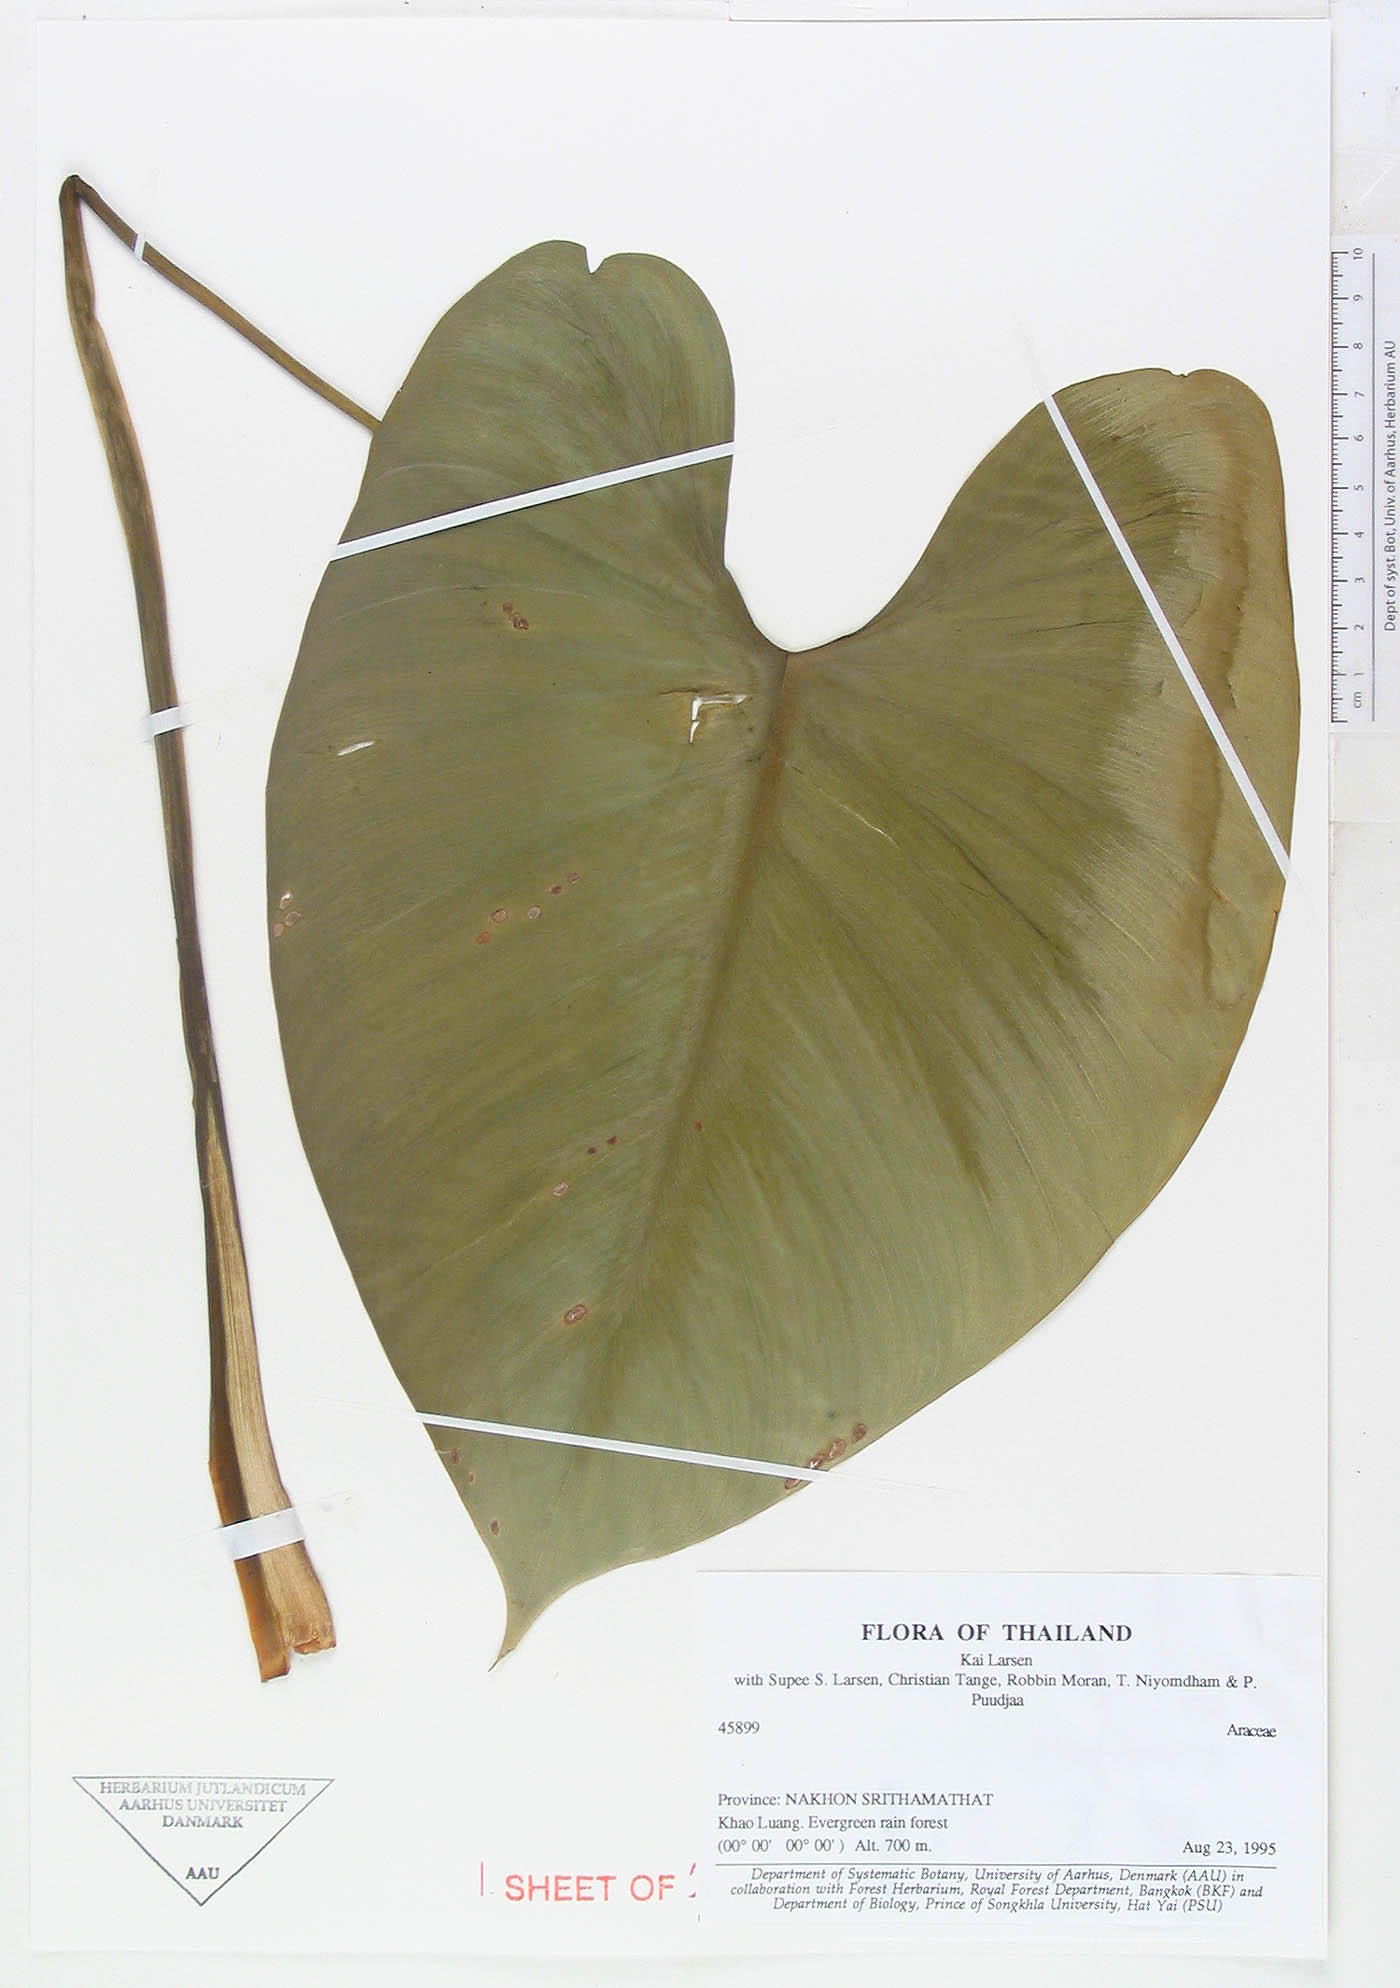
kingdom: Plantae
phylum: Tracheophyta
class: Liliopsida
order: Alismatales
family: Araceae
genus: Homalomena
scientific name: Homalomena pontederaefolia
